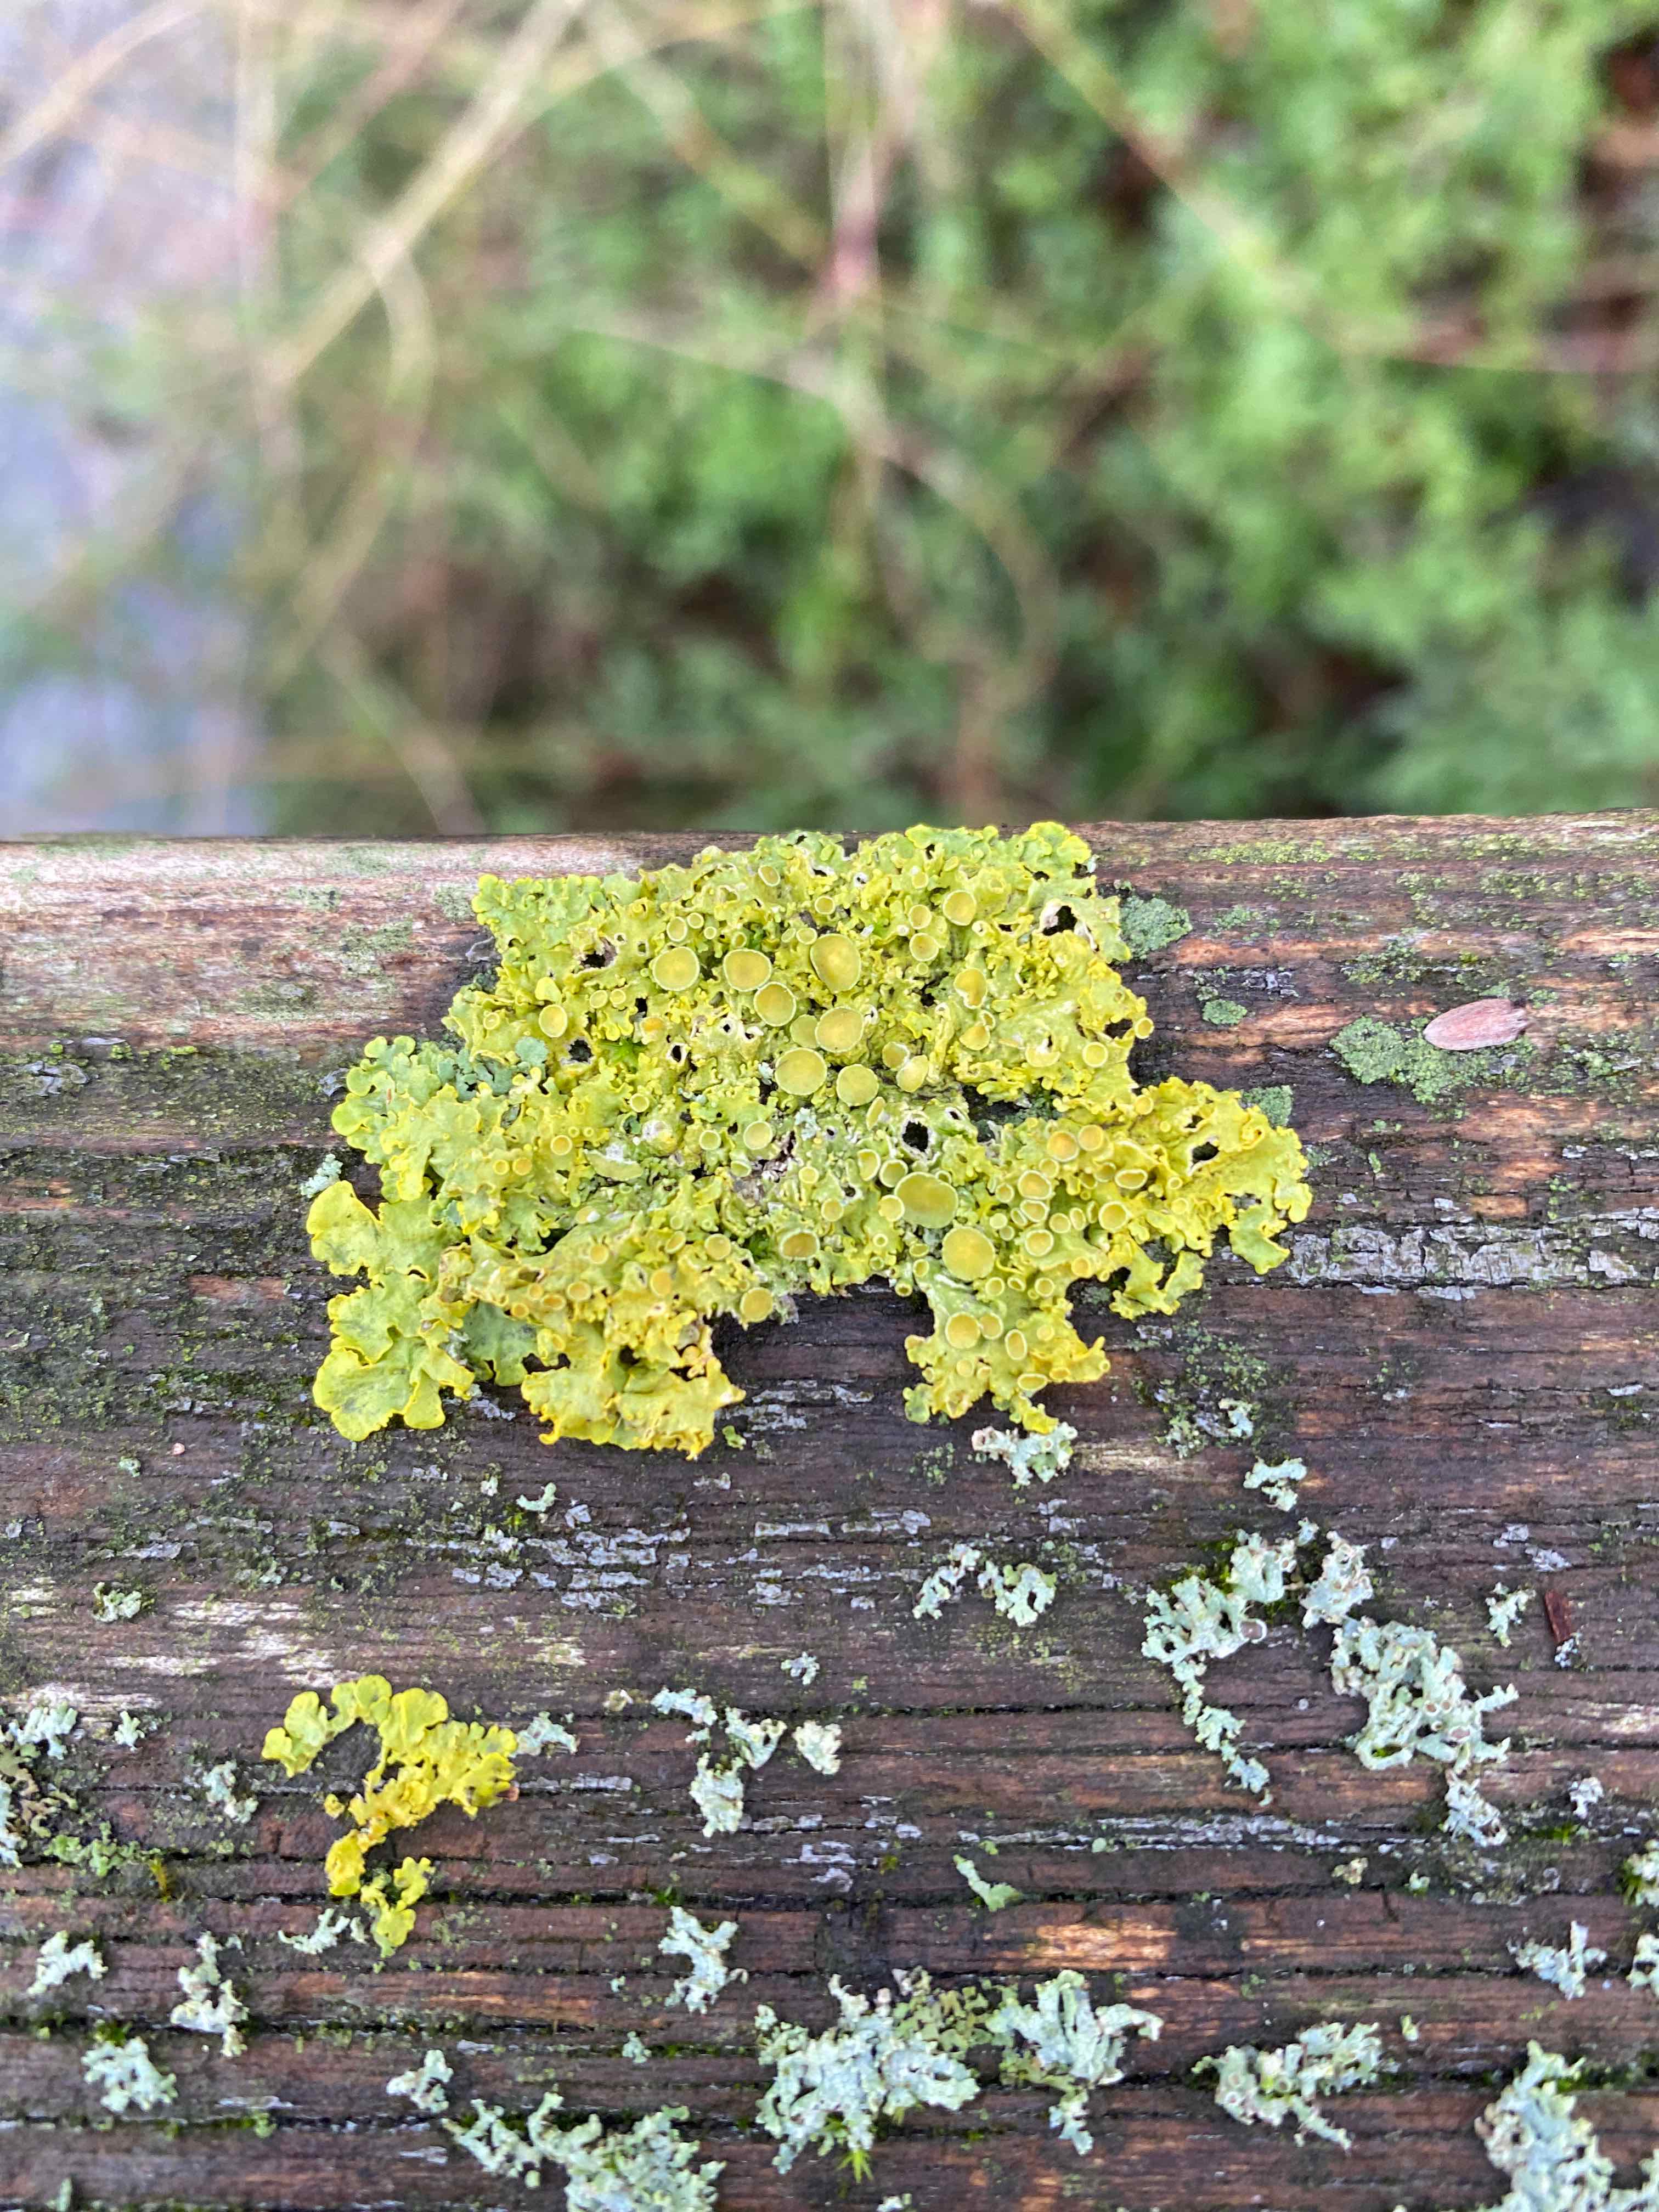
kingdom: Fungi
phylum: Ascomycota
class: Lecanoromycetes
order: Teloschistales
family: Teloschistaceae
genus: Xanthoria
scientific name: Xanthoria parietina
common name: almindelig væggelav
